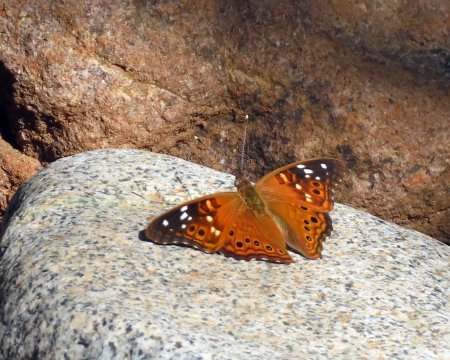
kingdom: Animalia
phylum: Arthropoda
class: Insecta
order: Lepidoptera
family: Nymphalidae
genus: Asterocampa
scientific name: Asterocampa leilia
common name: Empress Leilia
